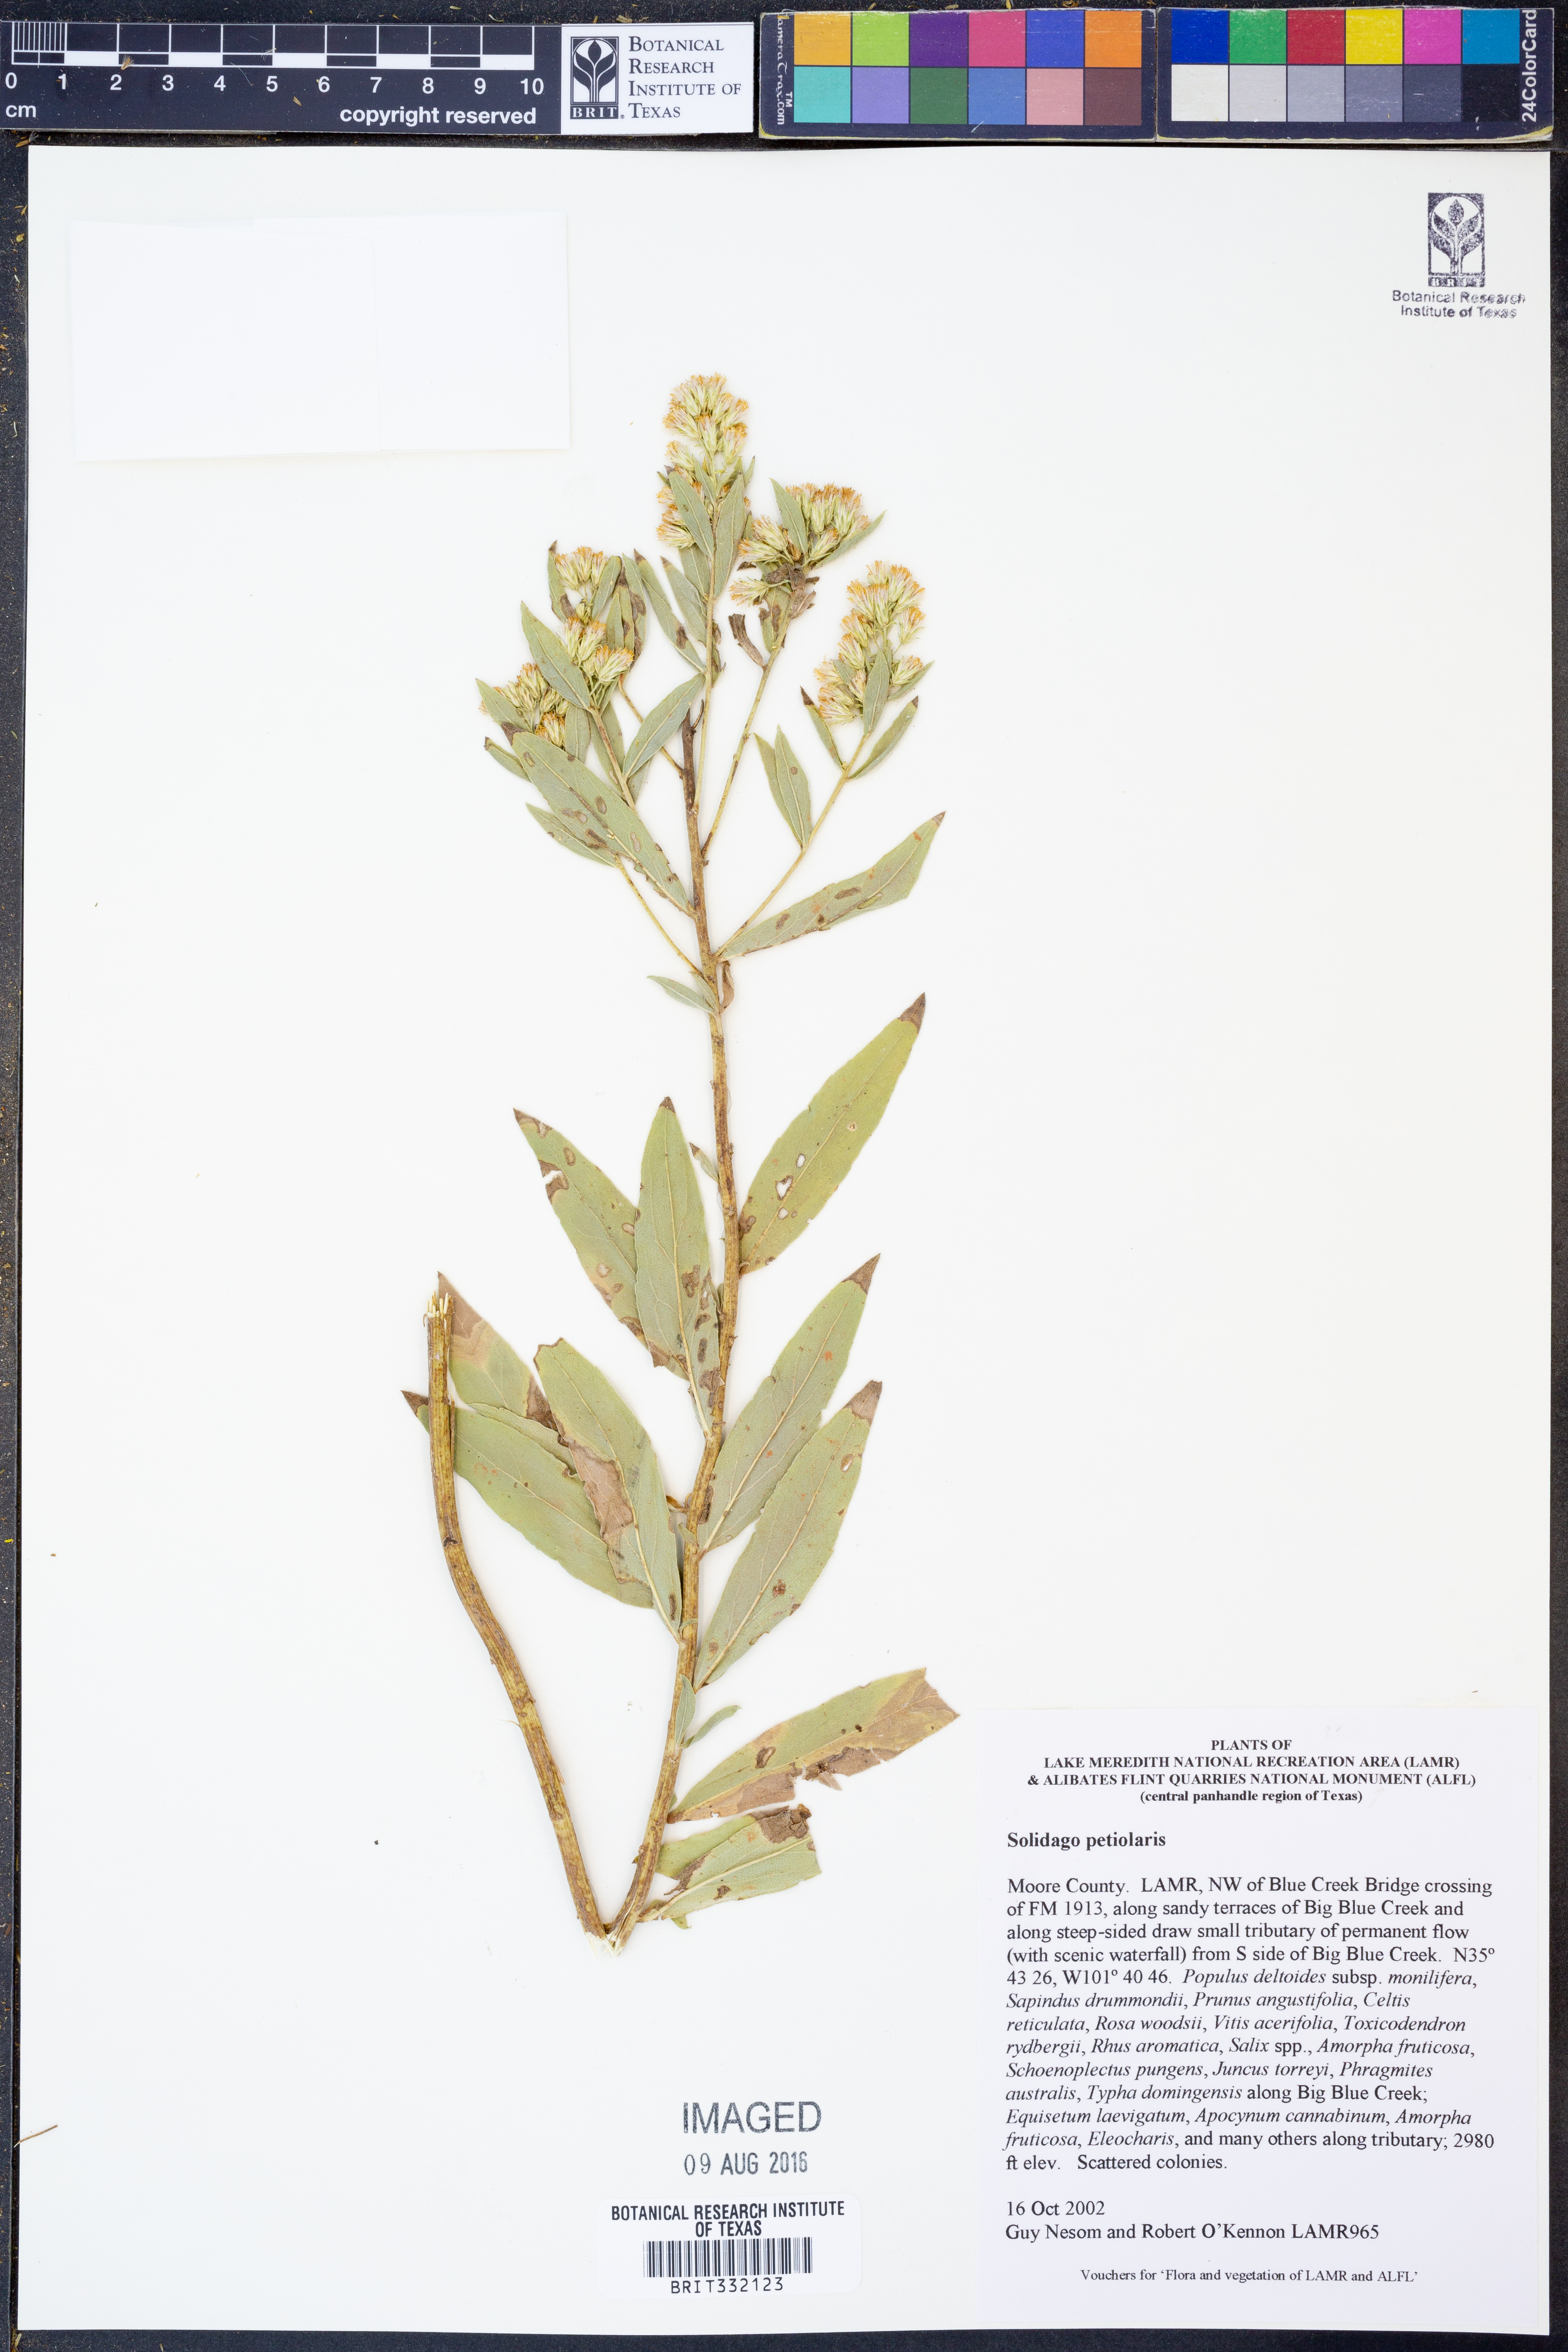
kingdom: Plantae
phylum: Tracheophyta
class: Magnoliopsida
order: Asterales
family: Asteraceae
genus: Solidago
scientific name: Solidago petiolaris
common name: Downy ragged goldenrod
